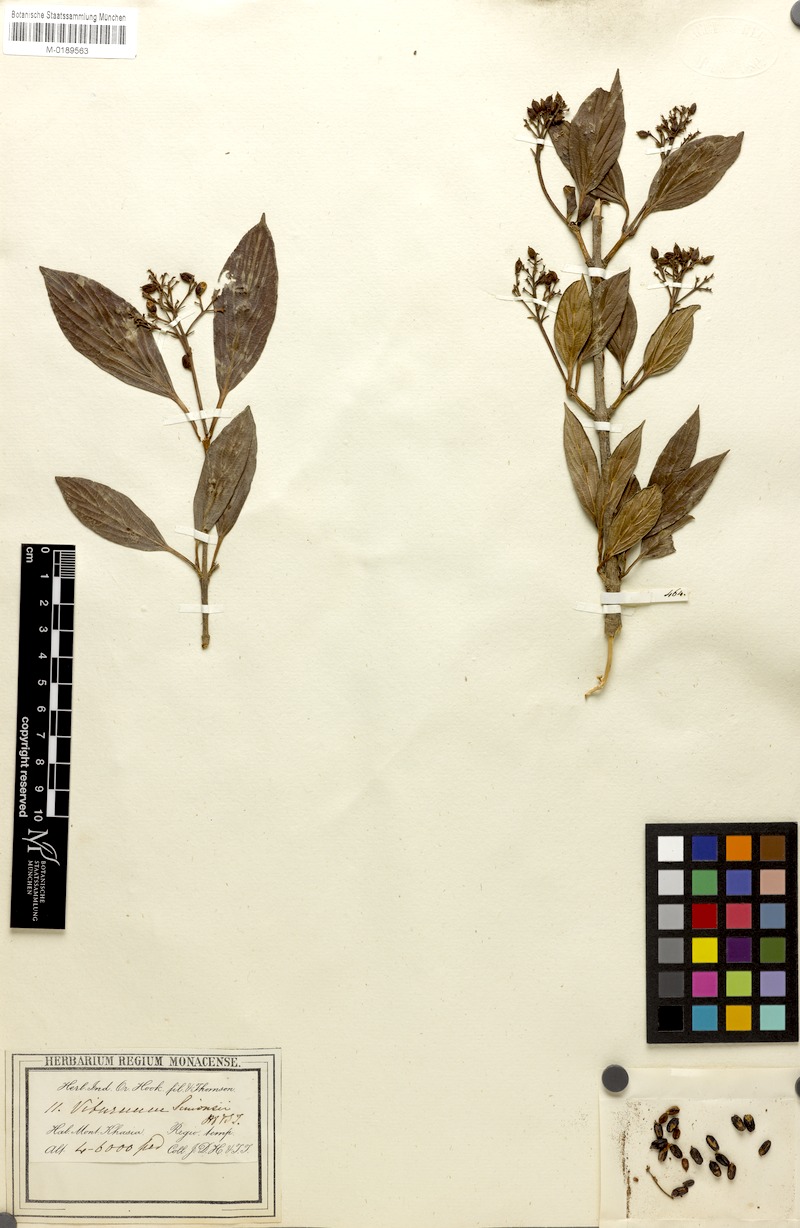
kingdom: Plantae
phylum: Tracheophyta
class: Magnoliopsida
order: Dipsacales
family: Viburnaceae
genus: Viburnum
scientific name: Viburnum odoratissimum
